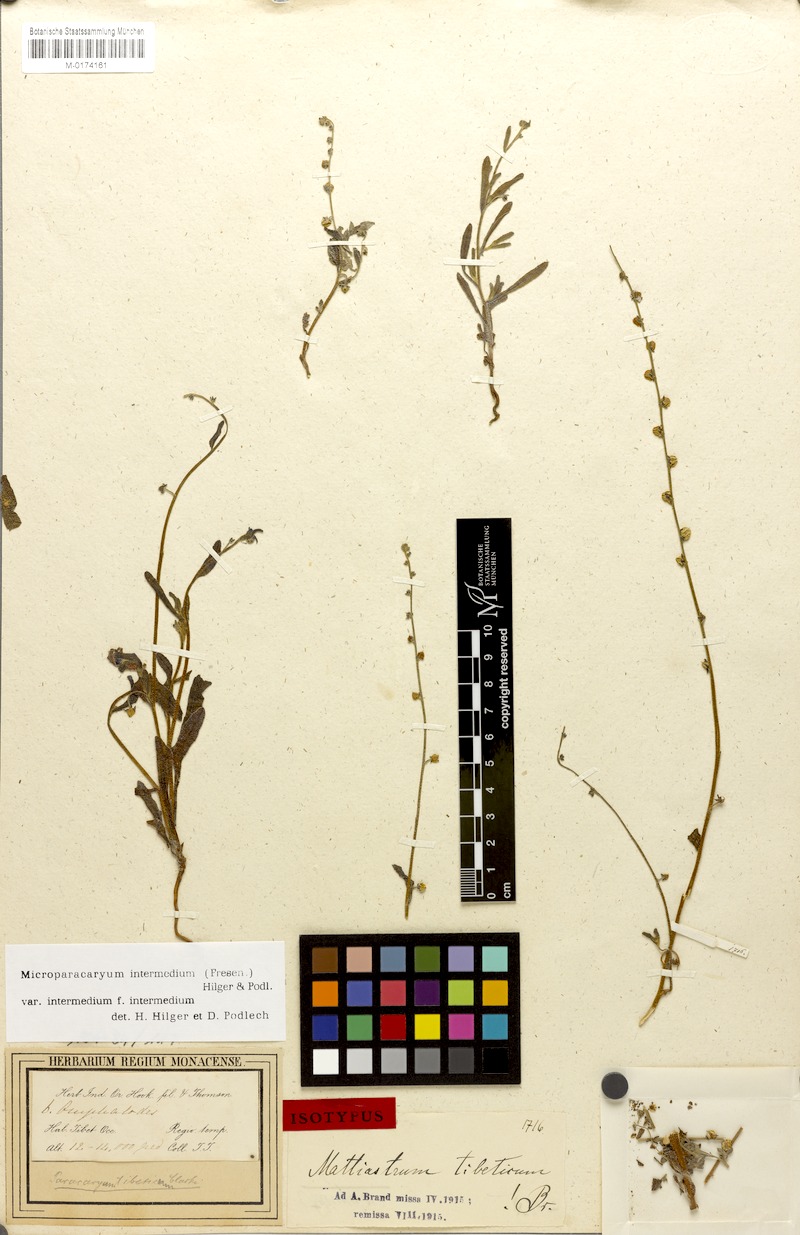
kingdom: Plantae
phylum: Tracheophyta
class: Magnoliopsida
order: Boraginales
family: Boraginaceae
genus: Microparacaryum
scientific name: Microparacaryum intermedium
